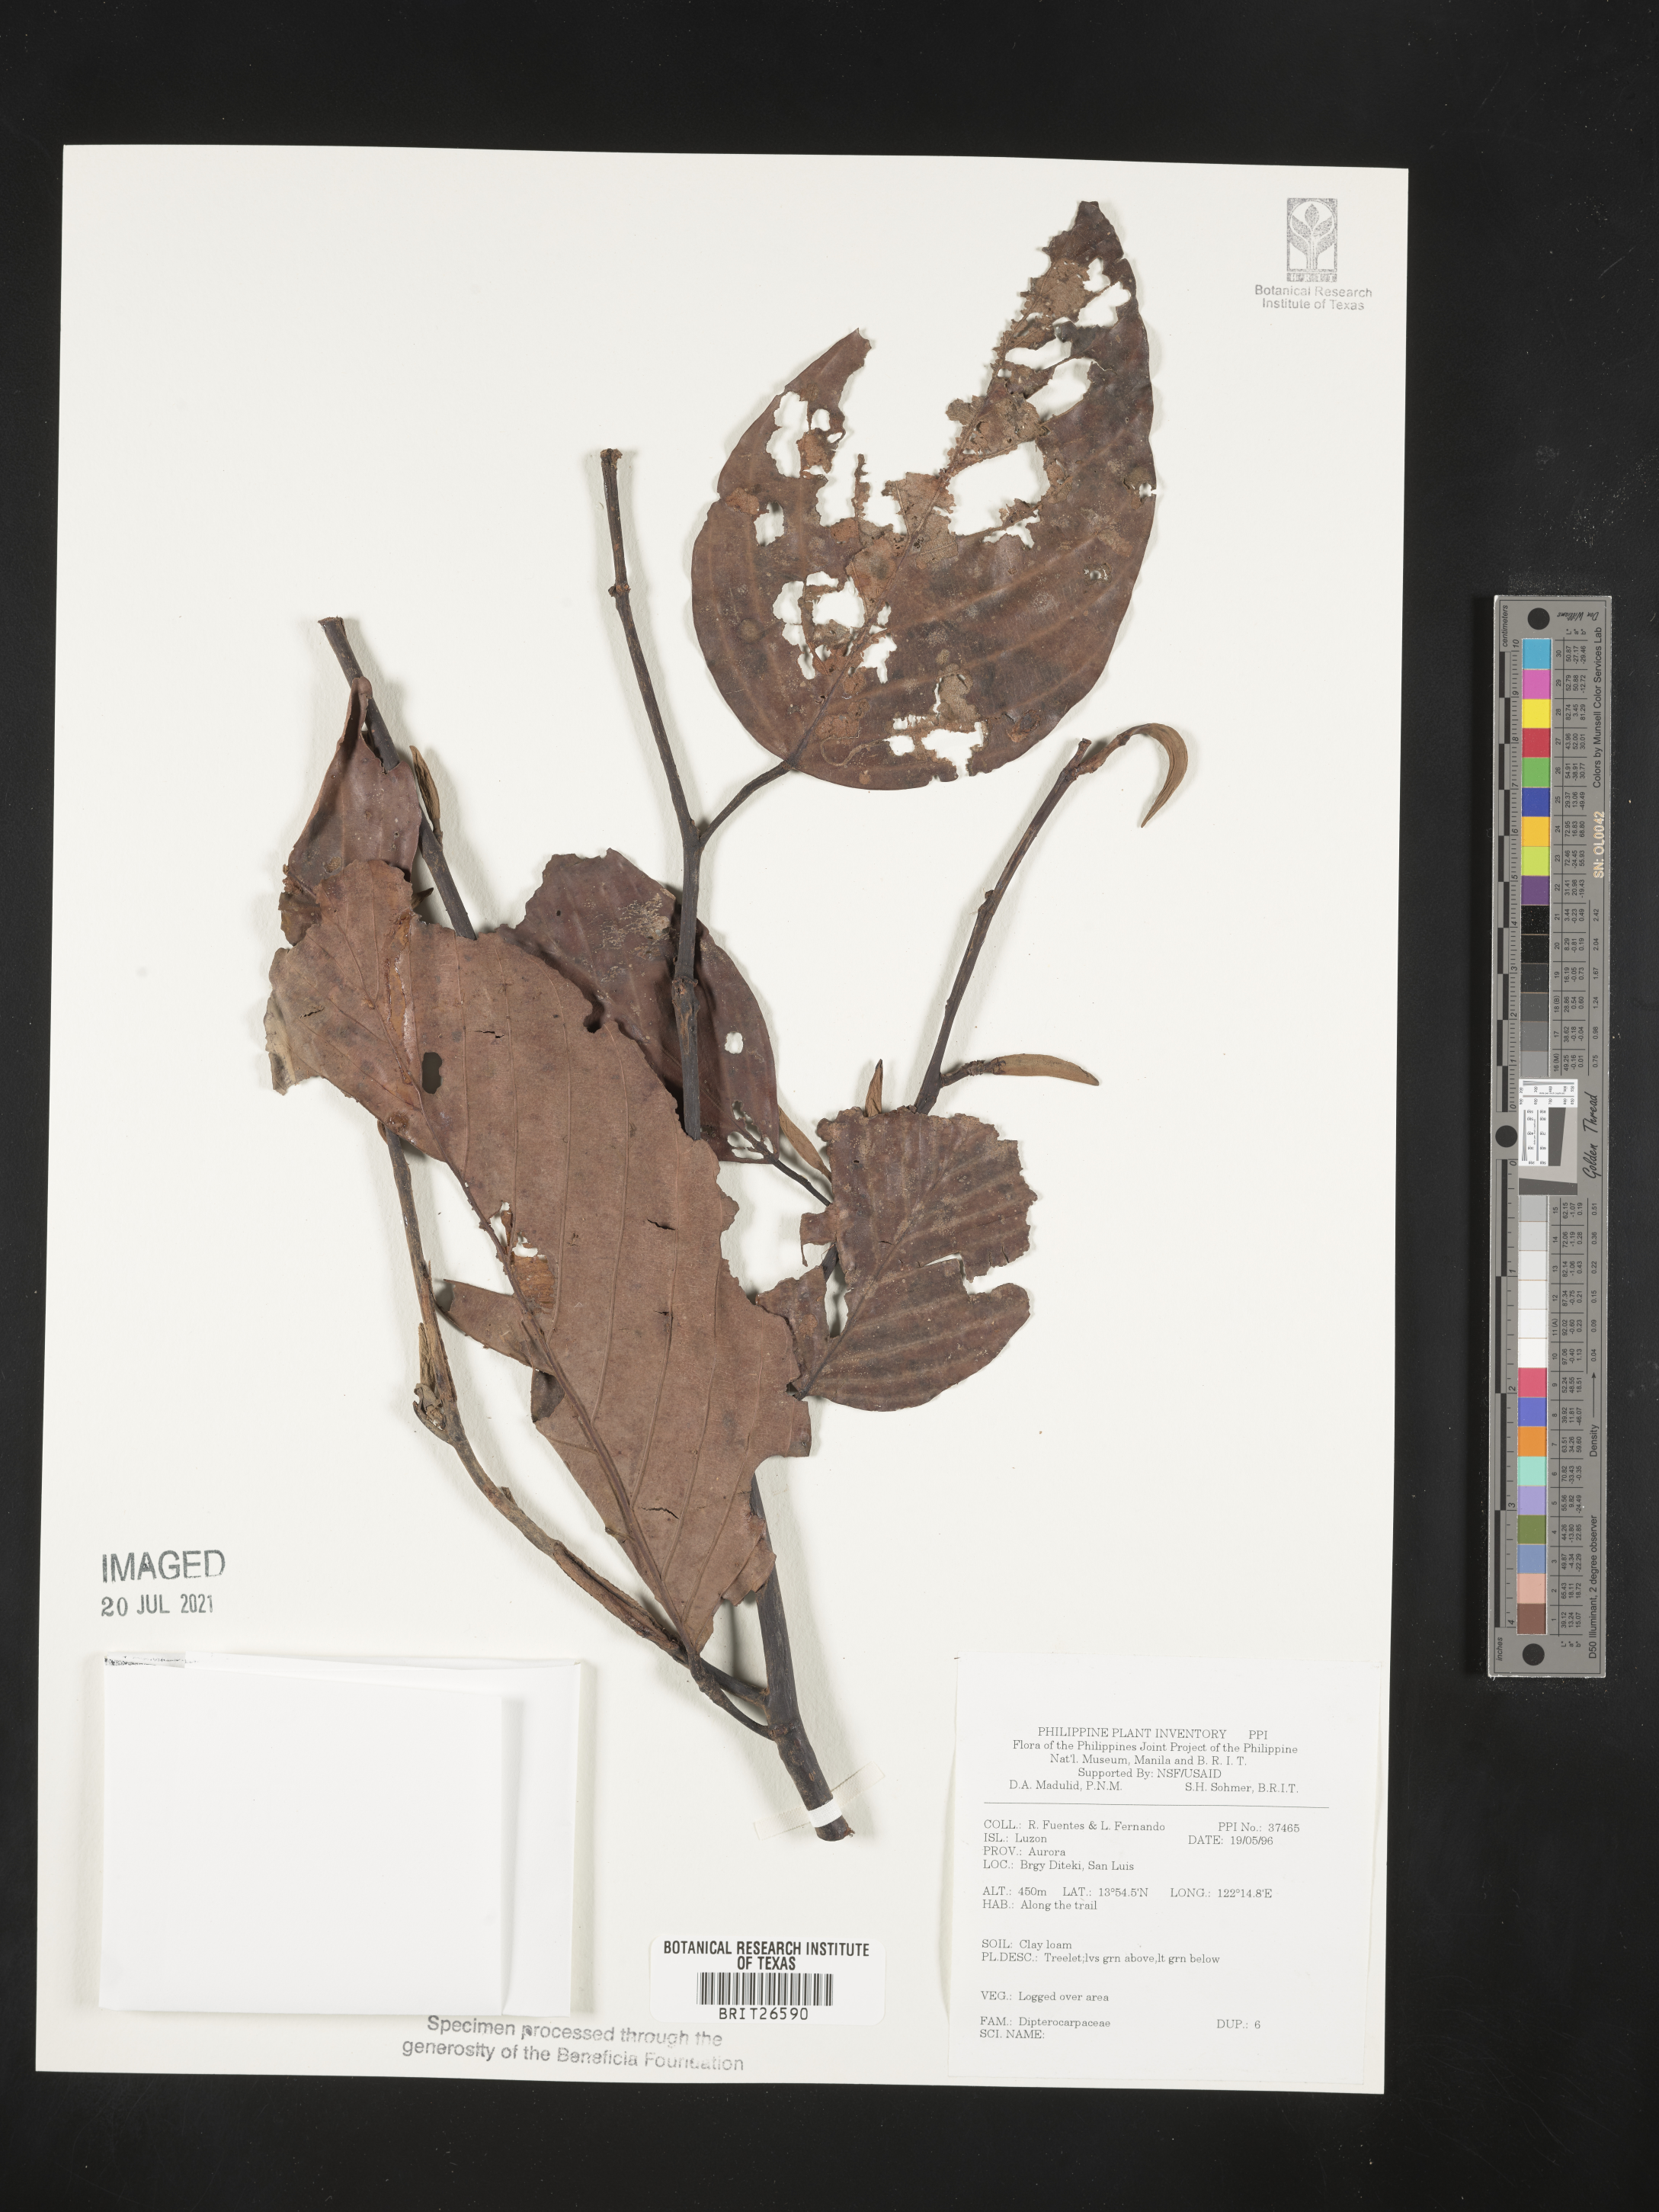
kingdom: Plantae
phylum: Tracheophyta
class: Magnoliopsida
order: Malvales
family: Dipterocarpaceae
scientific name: Dipterocarpaceae
